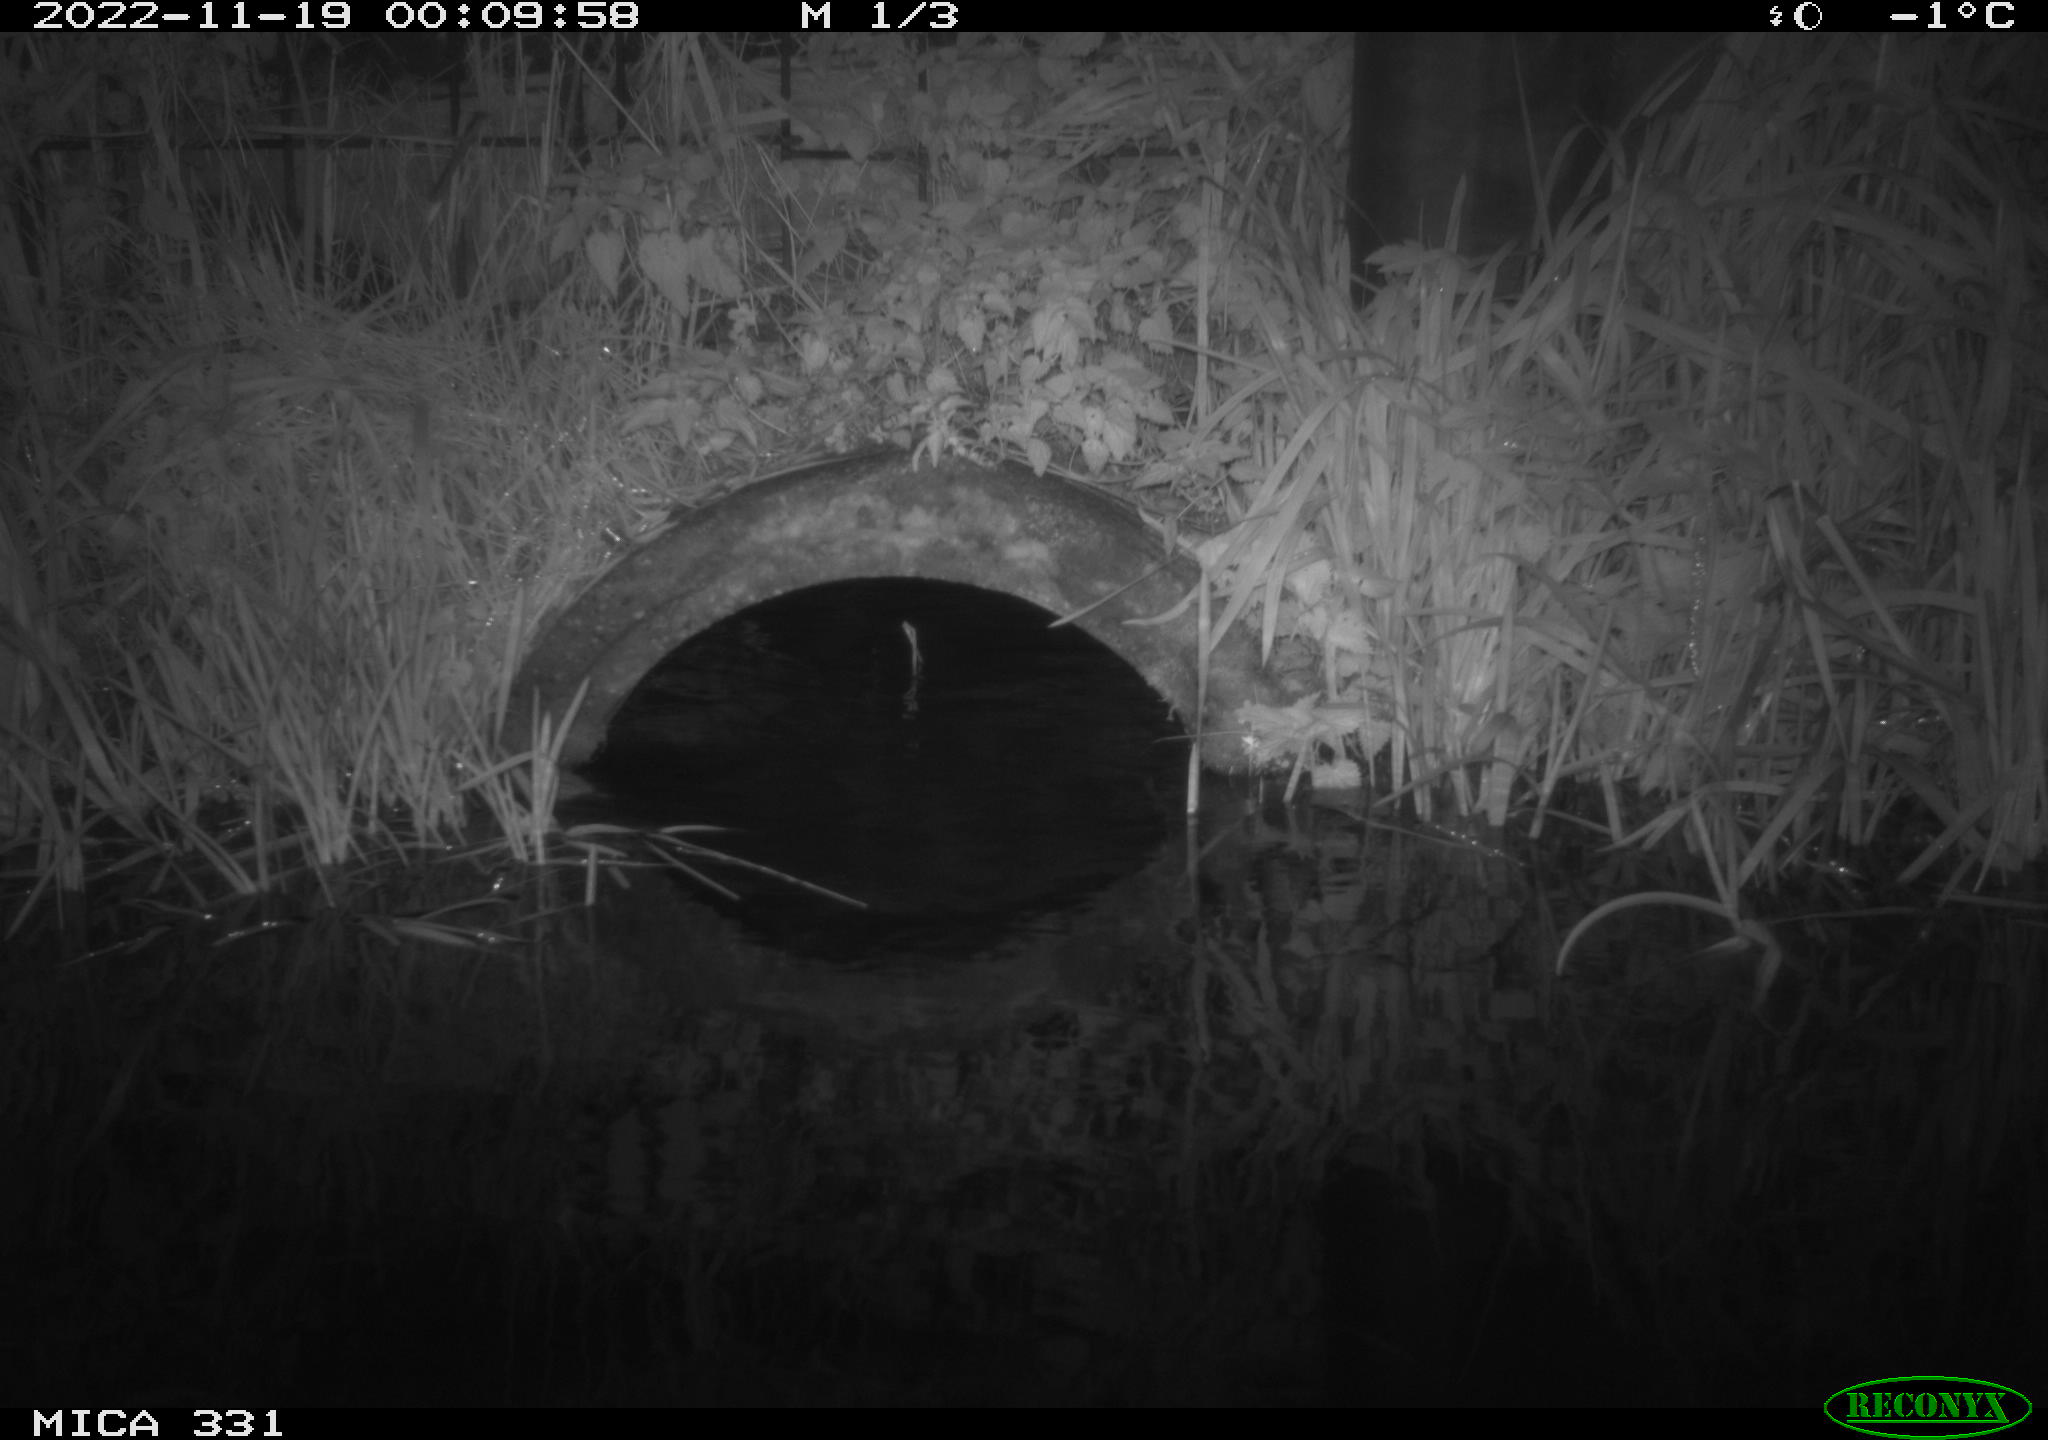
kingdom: Animalia
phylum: Chordata
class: Mammalia
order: Rodentia
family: Muridae
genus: Rattus
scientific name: Rattus norvegicus
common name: Brown rat
